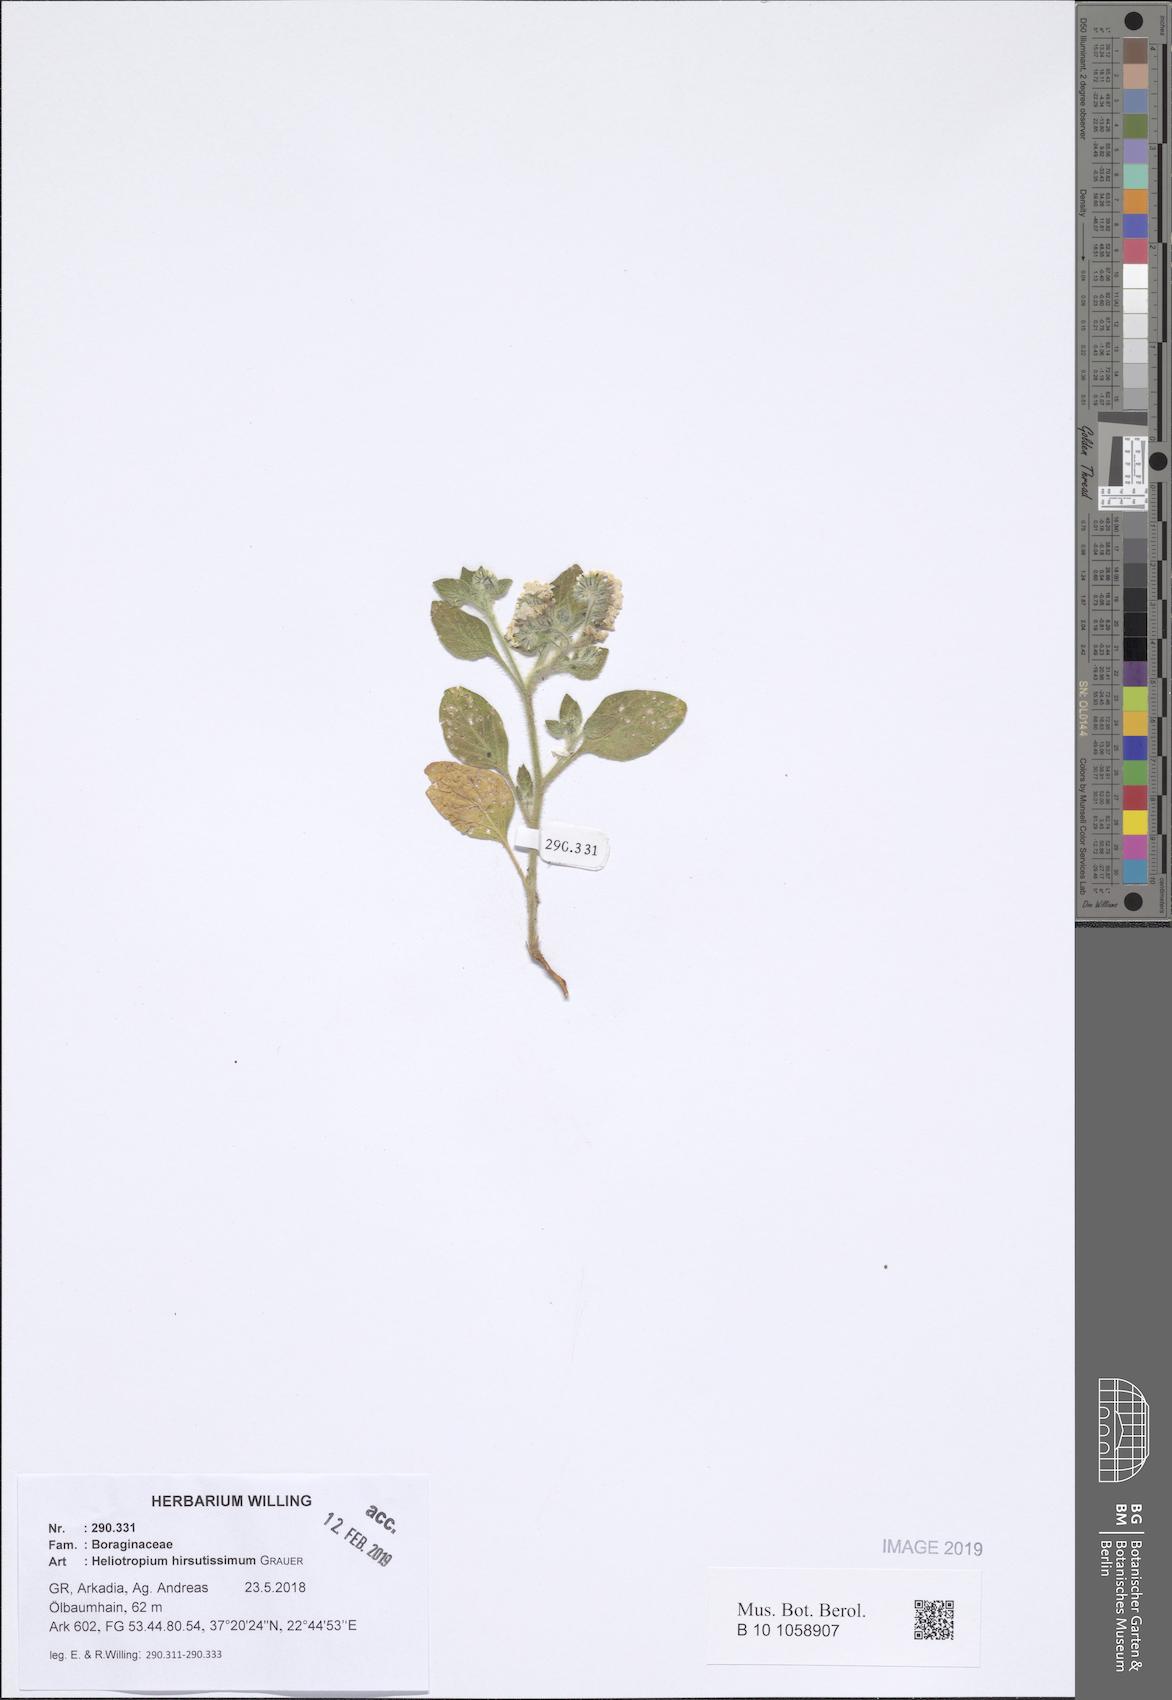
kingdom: Plantae
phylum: Tracheophyta
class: Magnoliopsida
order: Boraginales
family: Heliotropiaceae
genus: Heliotropium
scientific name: Heliotropium hirsutissimum
